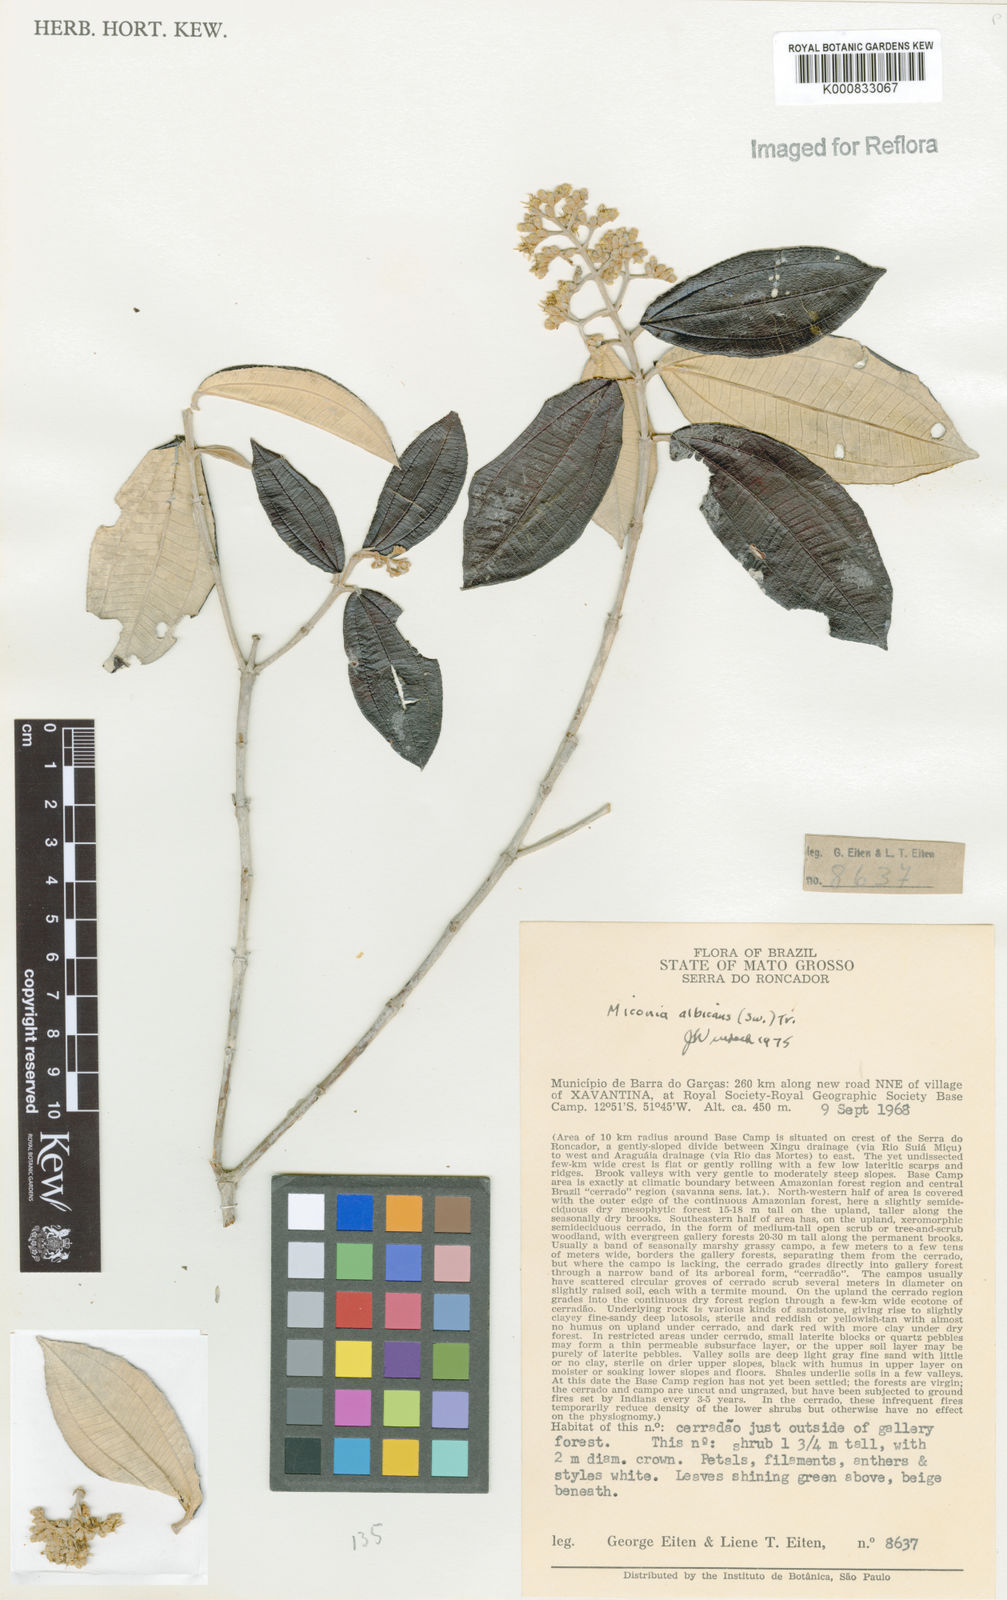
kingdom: Plantae
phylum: Tracheophyta
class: Magnoliopsida
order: Myrtales
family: Melastomataceae
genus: Miconia
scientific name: Miconia albicans
